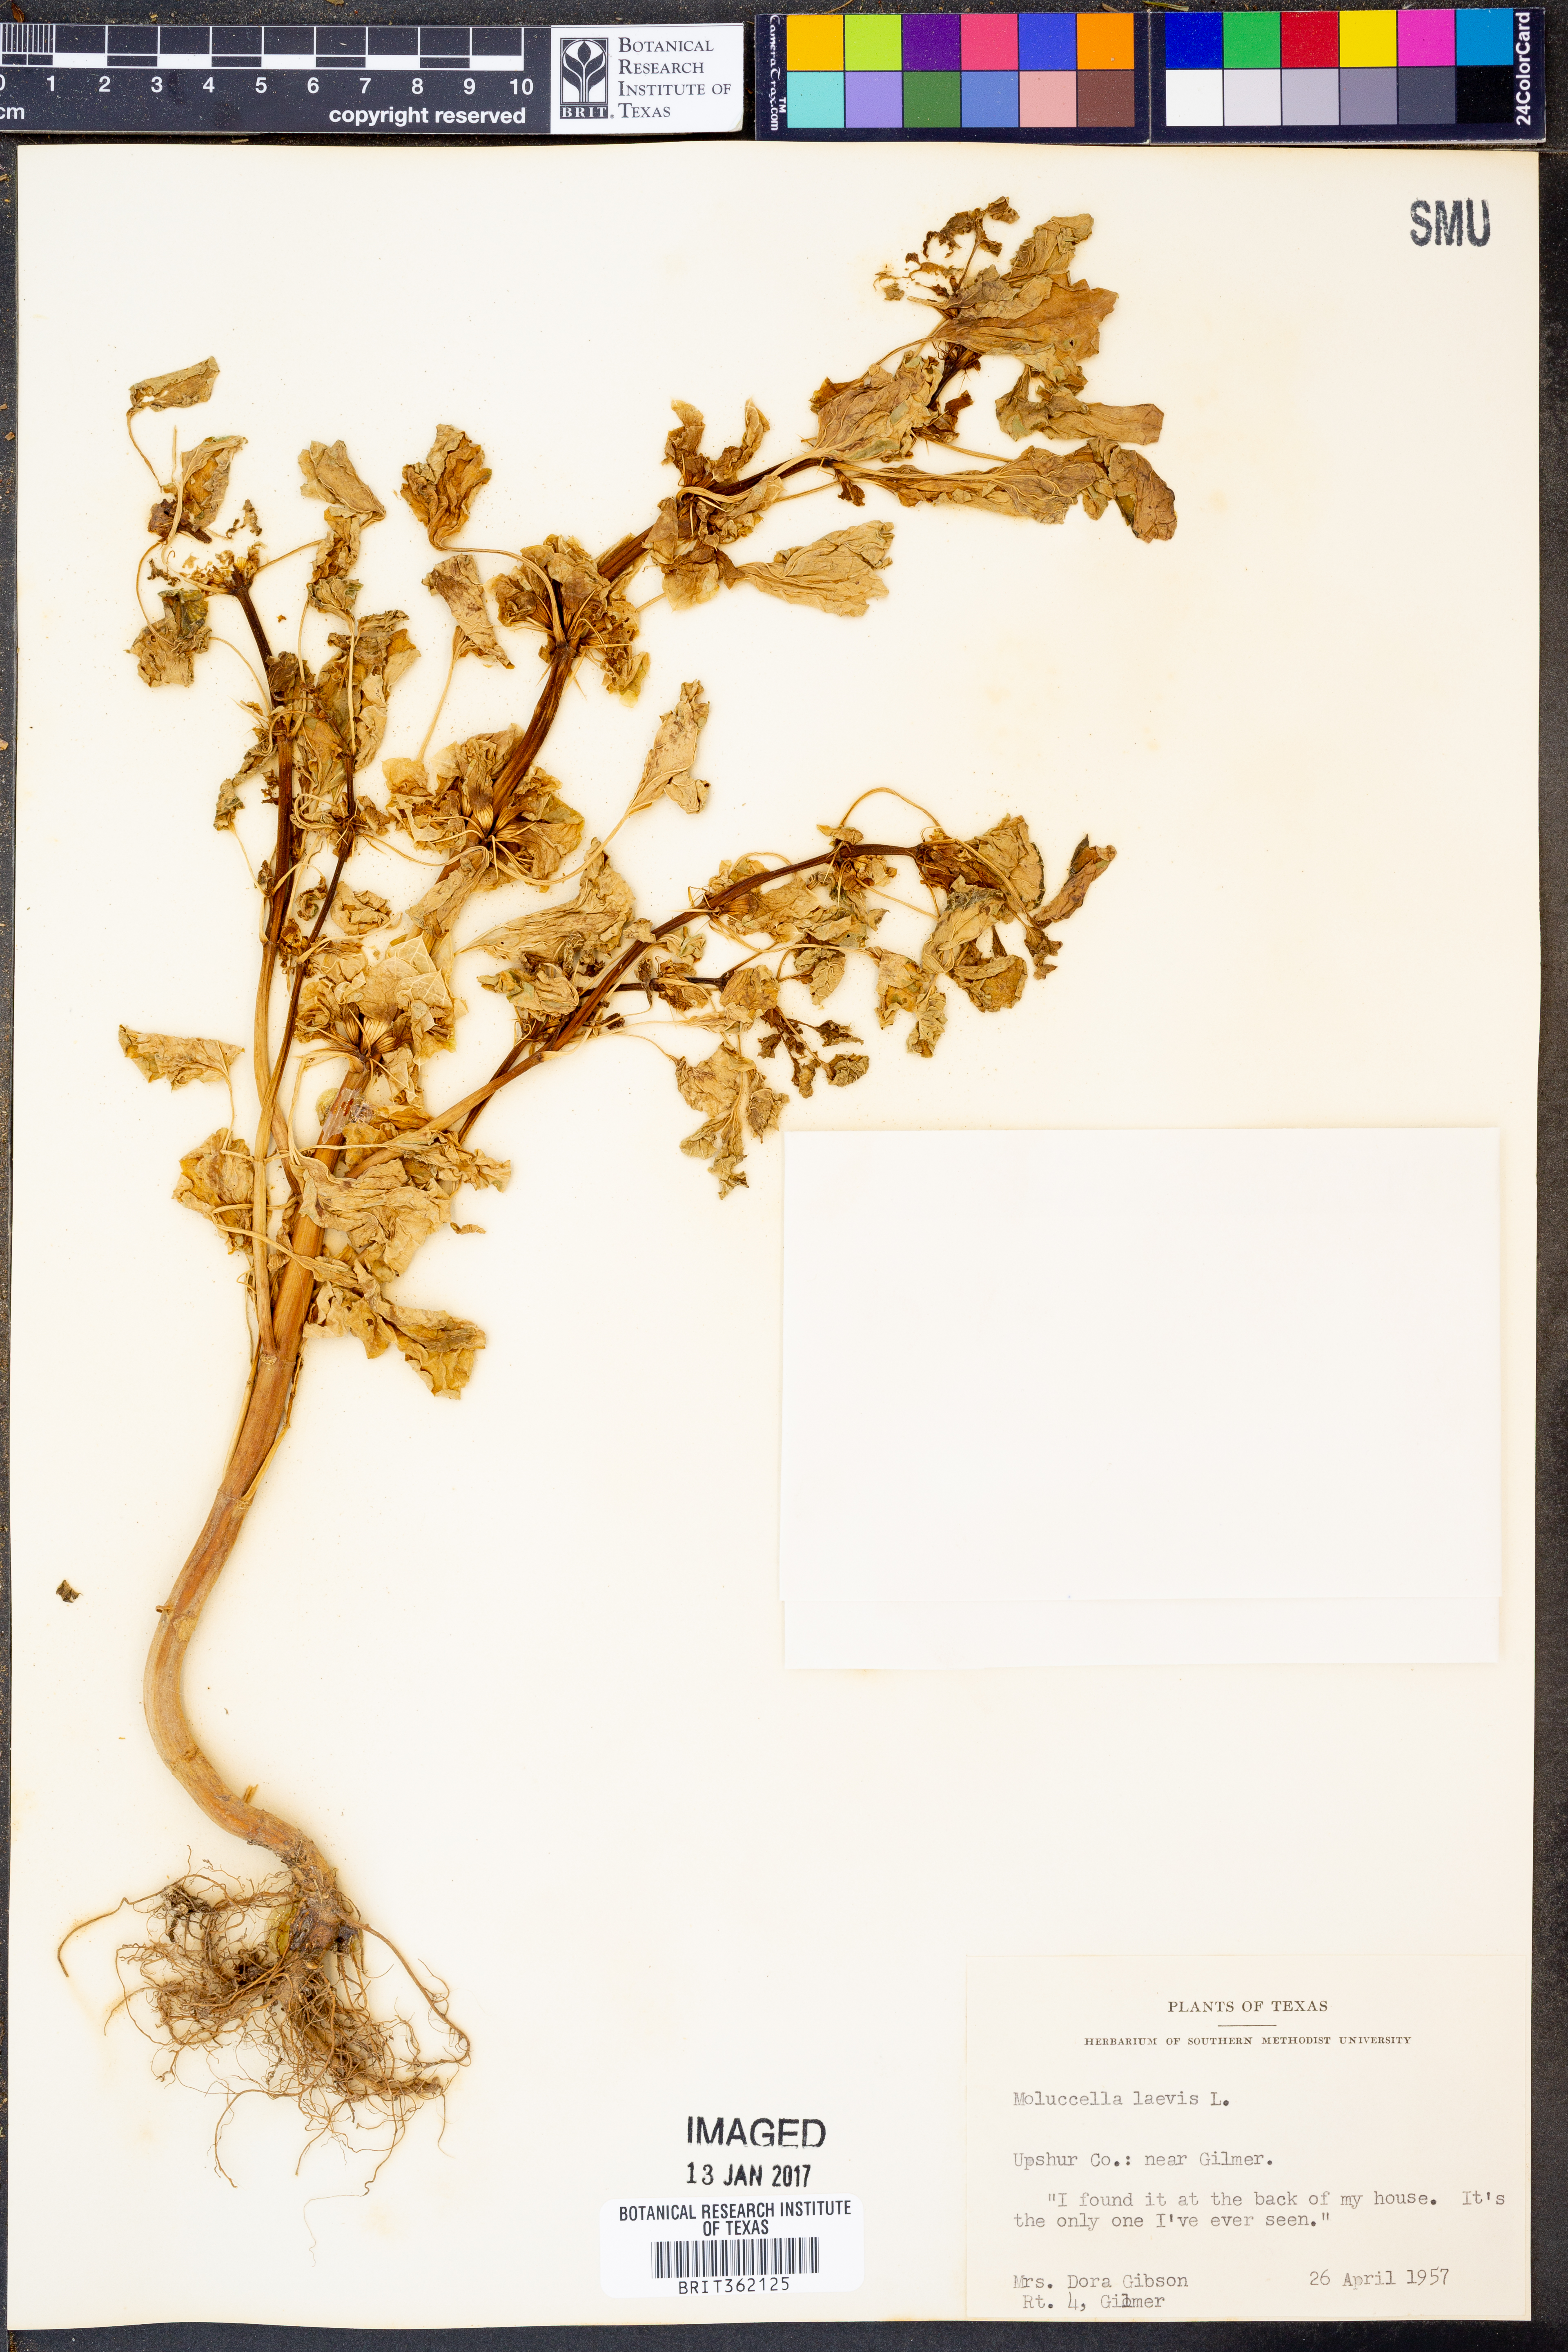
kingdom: Plantae
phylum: Tracheophyta
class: Magnoliopsida
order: Lamiales
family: Lamiaceae
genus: Moluccella
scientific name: Moluccella laevis
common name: Shellflower
